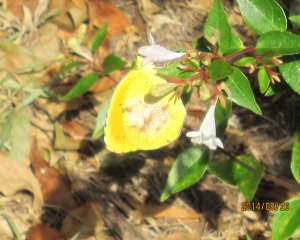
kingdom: Animalia
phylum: Arthropoda
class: Insecta
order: Lepidoptera
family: Pieridae
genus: Abaeis
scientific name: Abaeis nicippe
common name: Sleepy Orange
